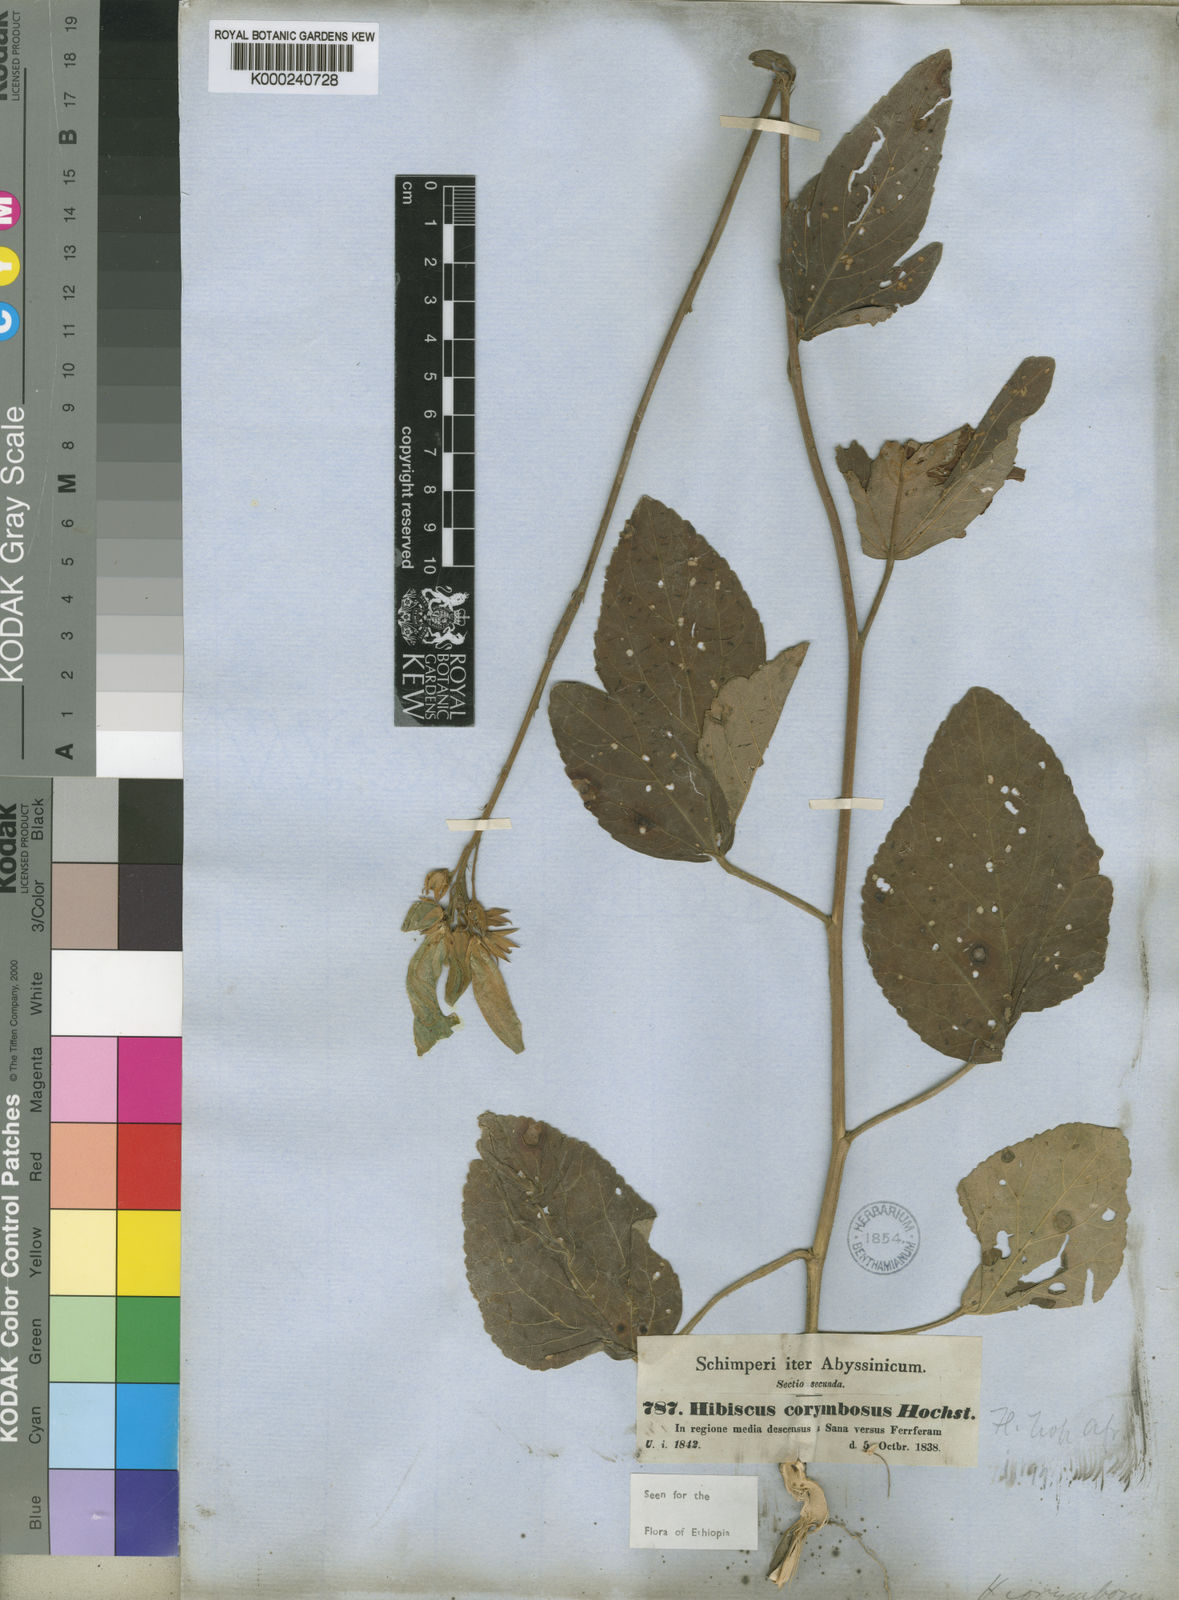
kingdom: Plantae
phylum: Tracheophyta
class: Magnoliopsida
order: Malvales
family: Malvaceae
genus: Hibiscus
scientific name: Hibiscus corymbosus
